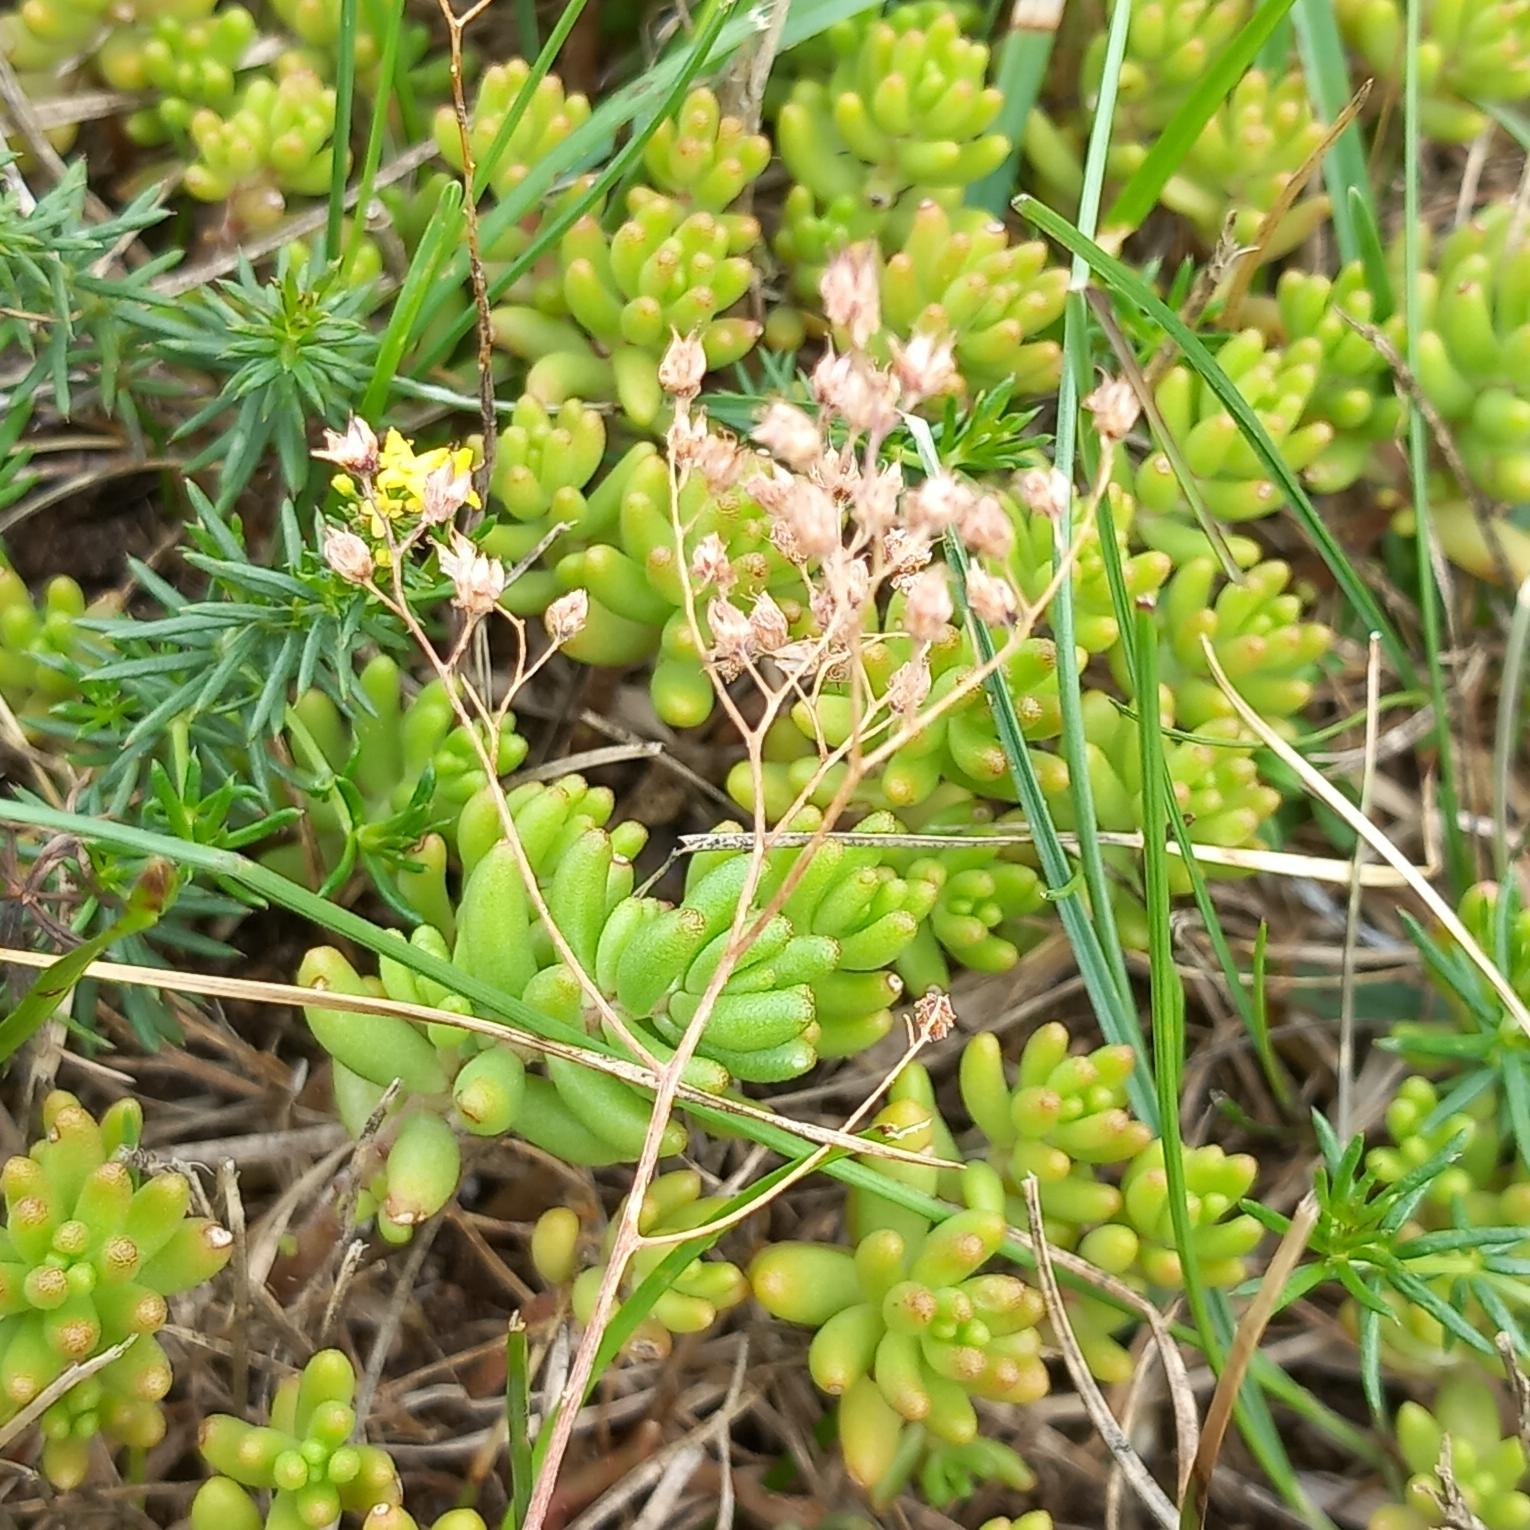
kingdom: Plantae
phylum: Tracheophyta
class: Magnoliopsida
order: Saxifragales
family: Crassulaceae
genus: Sedum
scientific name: Sedum album
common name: Hvid stenurt
